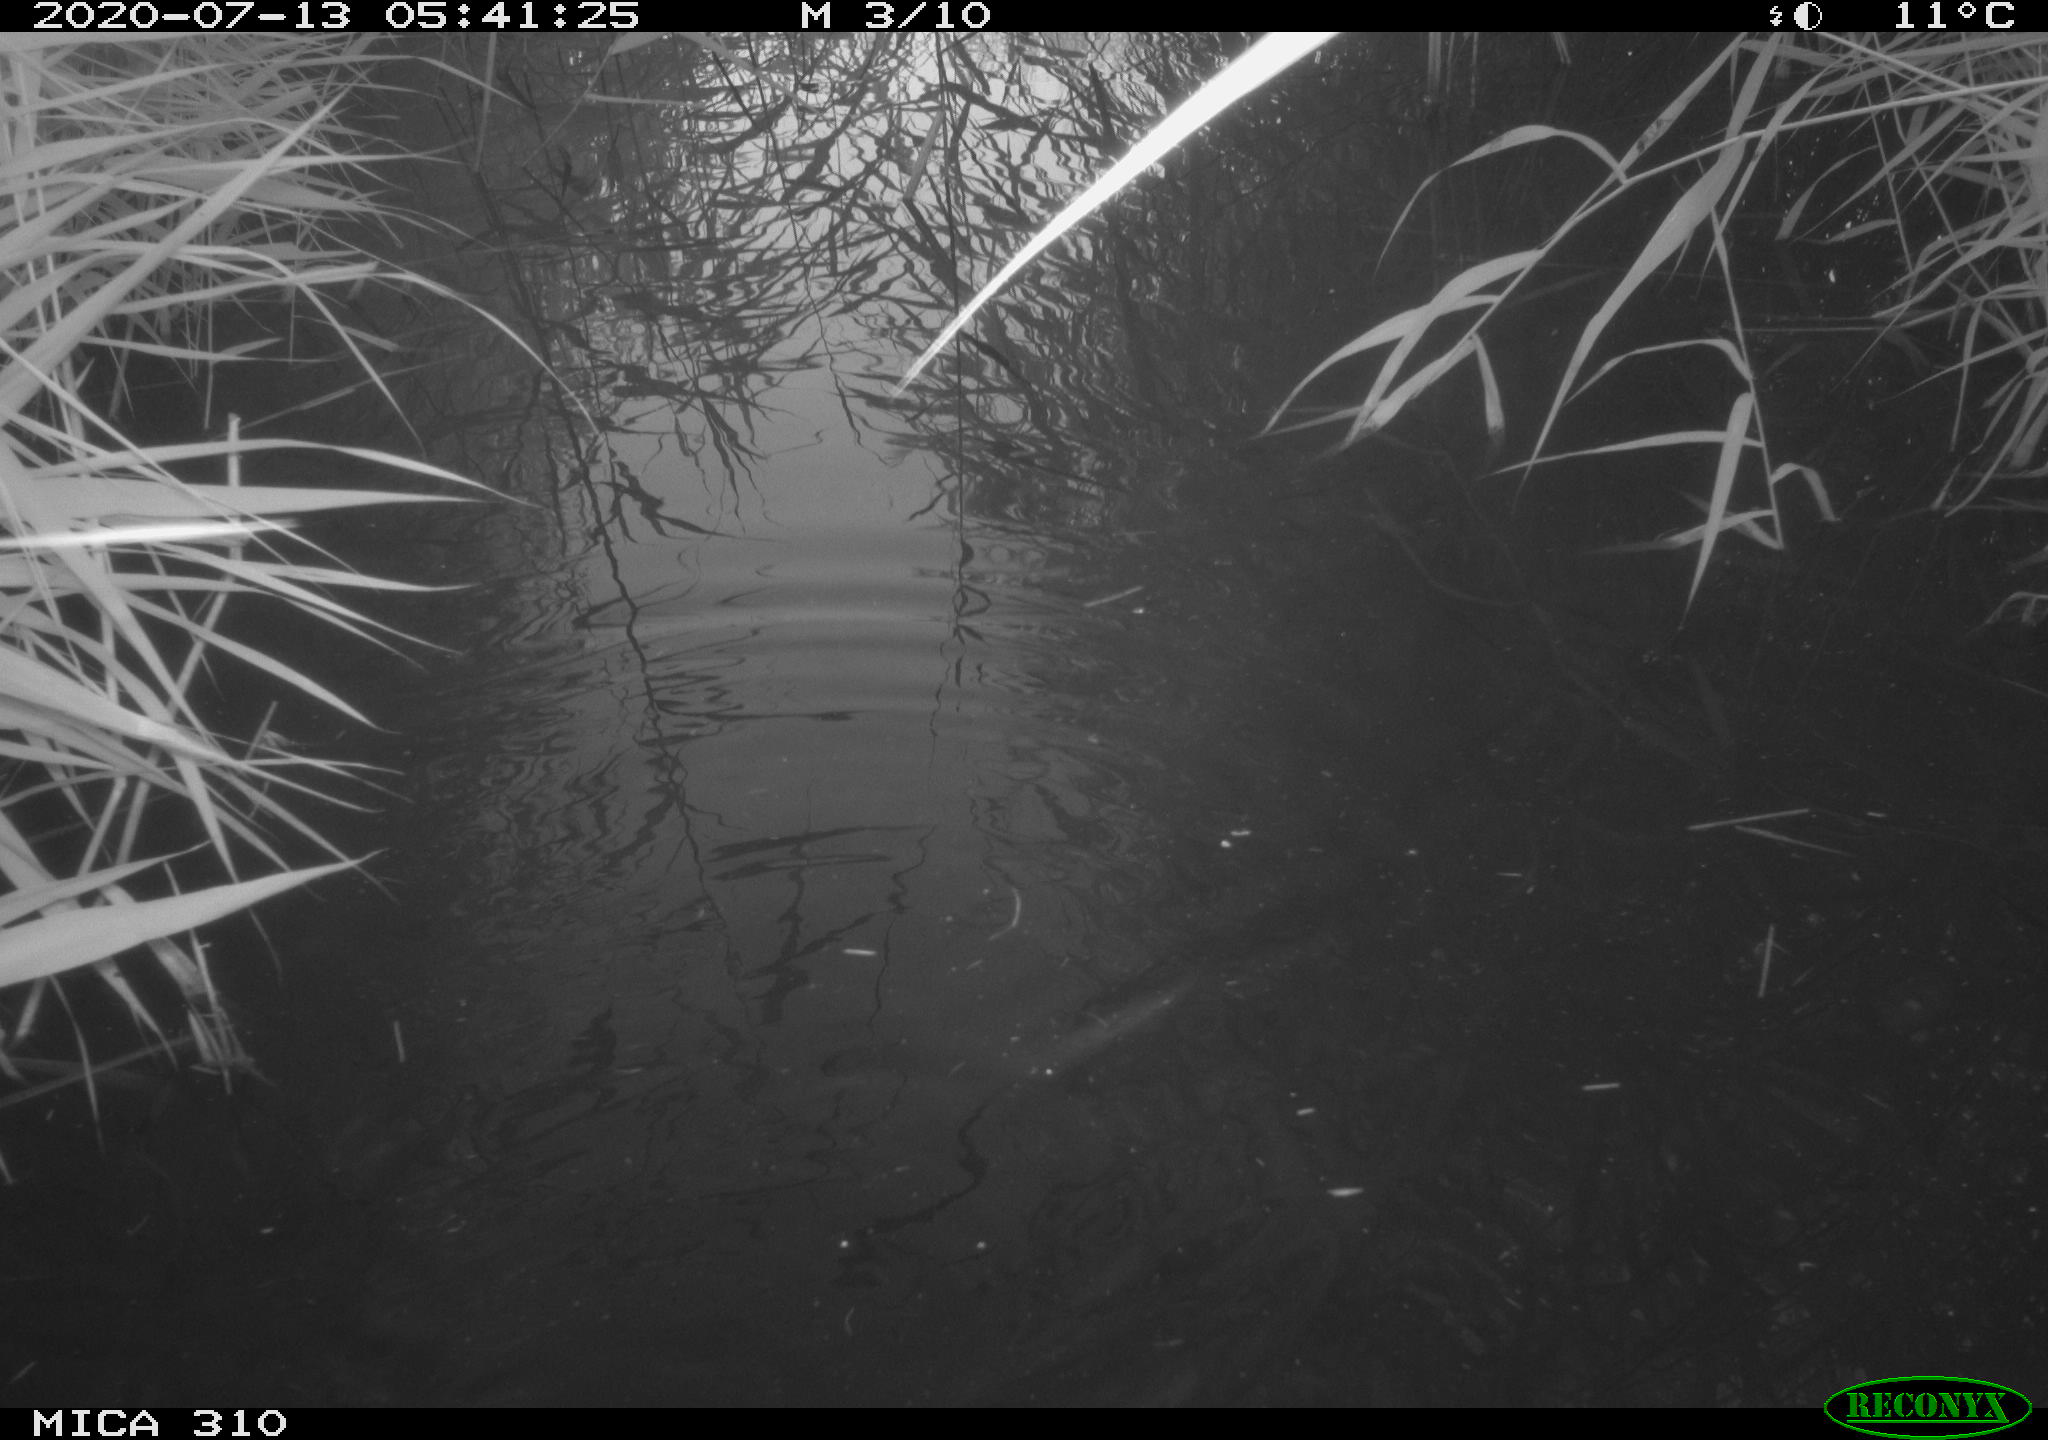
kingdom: Animalia
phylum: Chordata
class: Aves
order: Anseriformes
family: Anatidae
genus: Anas
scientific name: Anas platyrhynchos
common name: Mallard
